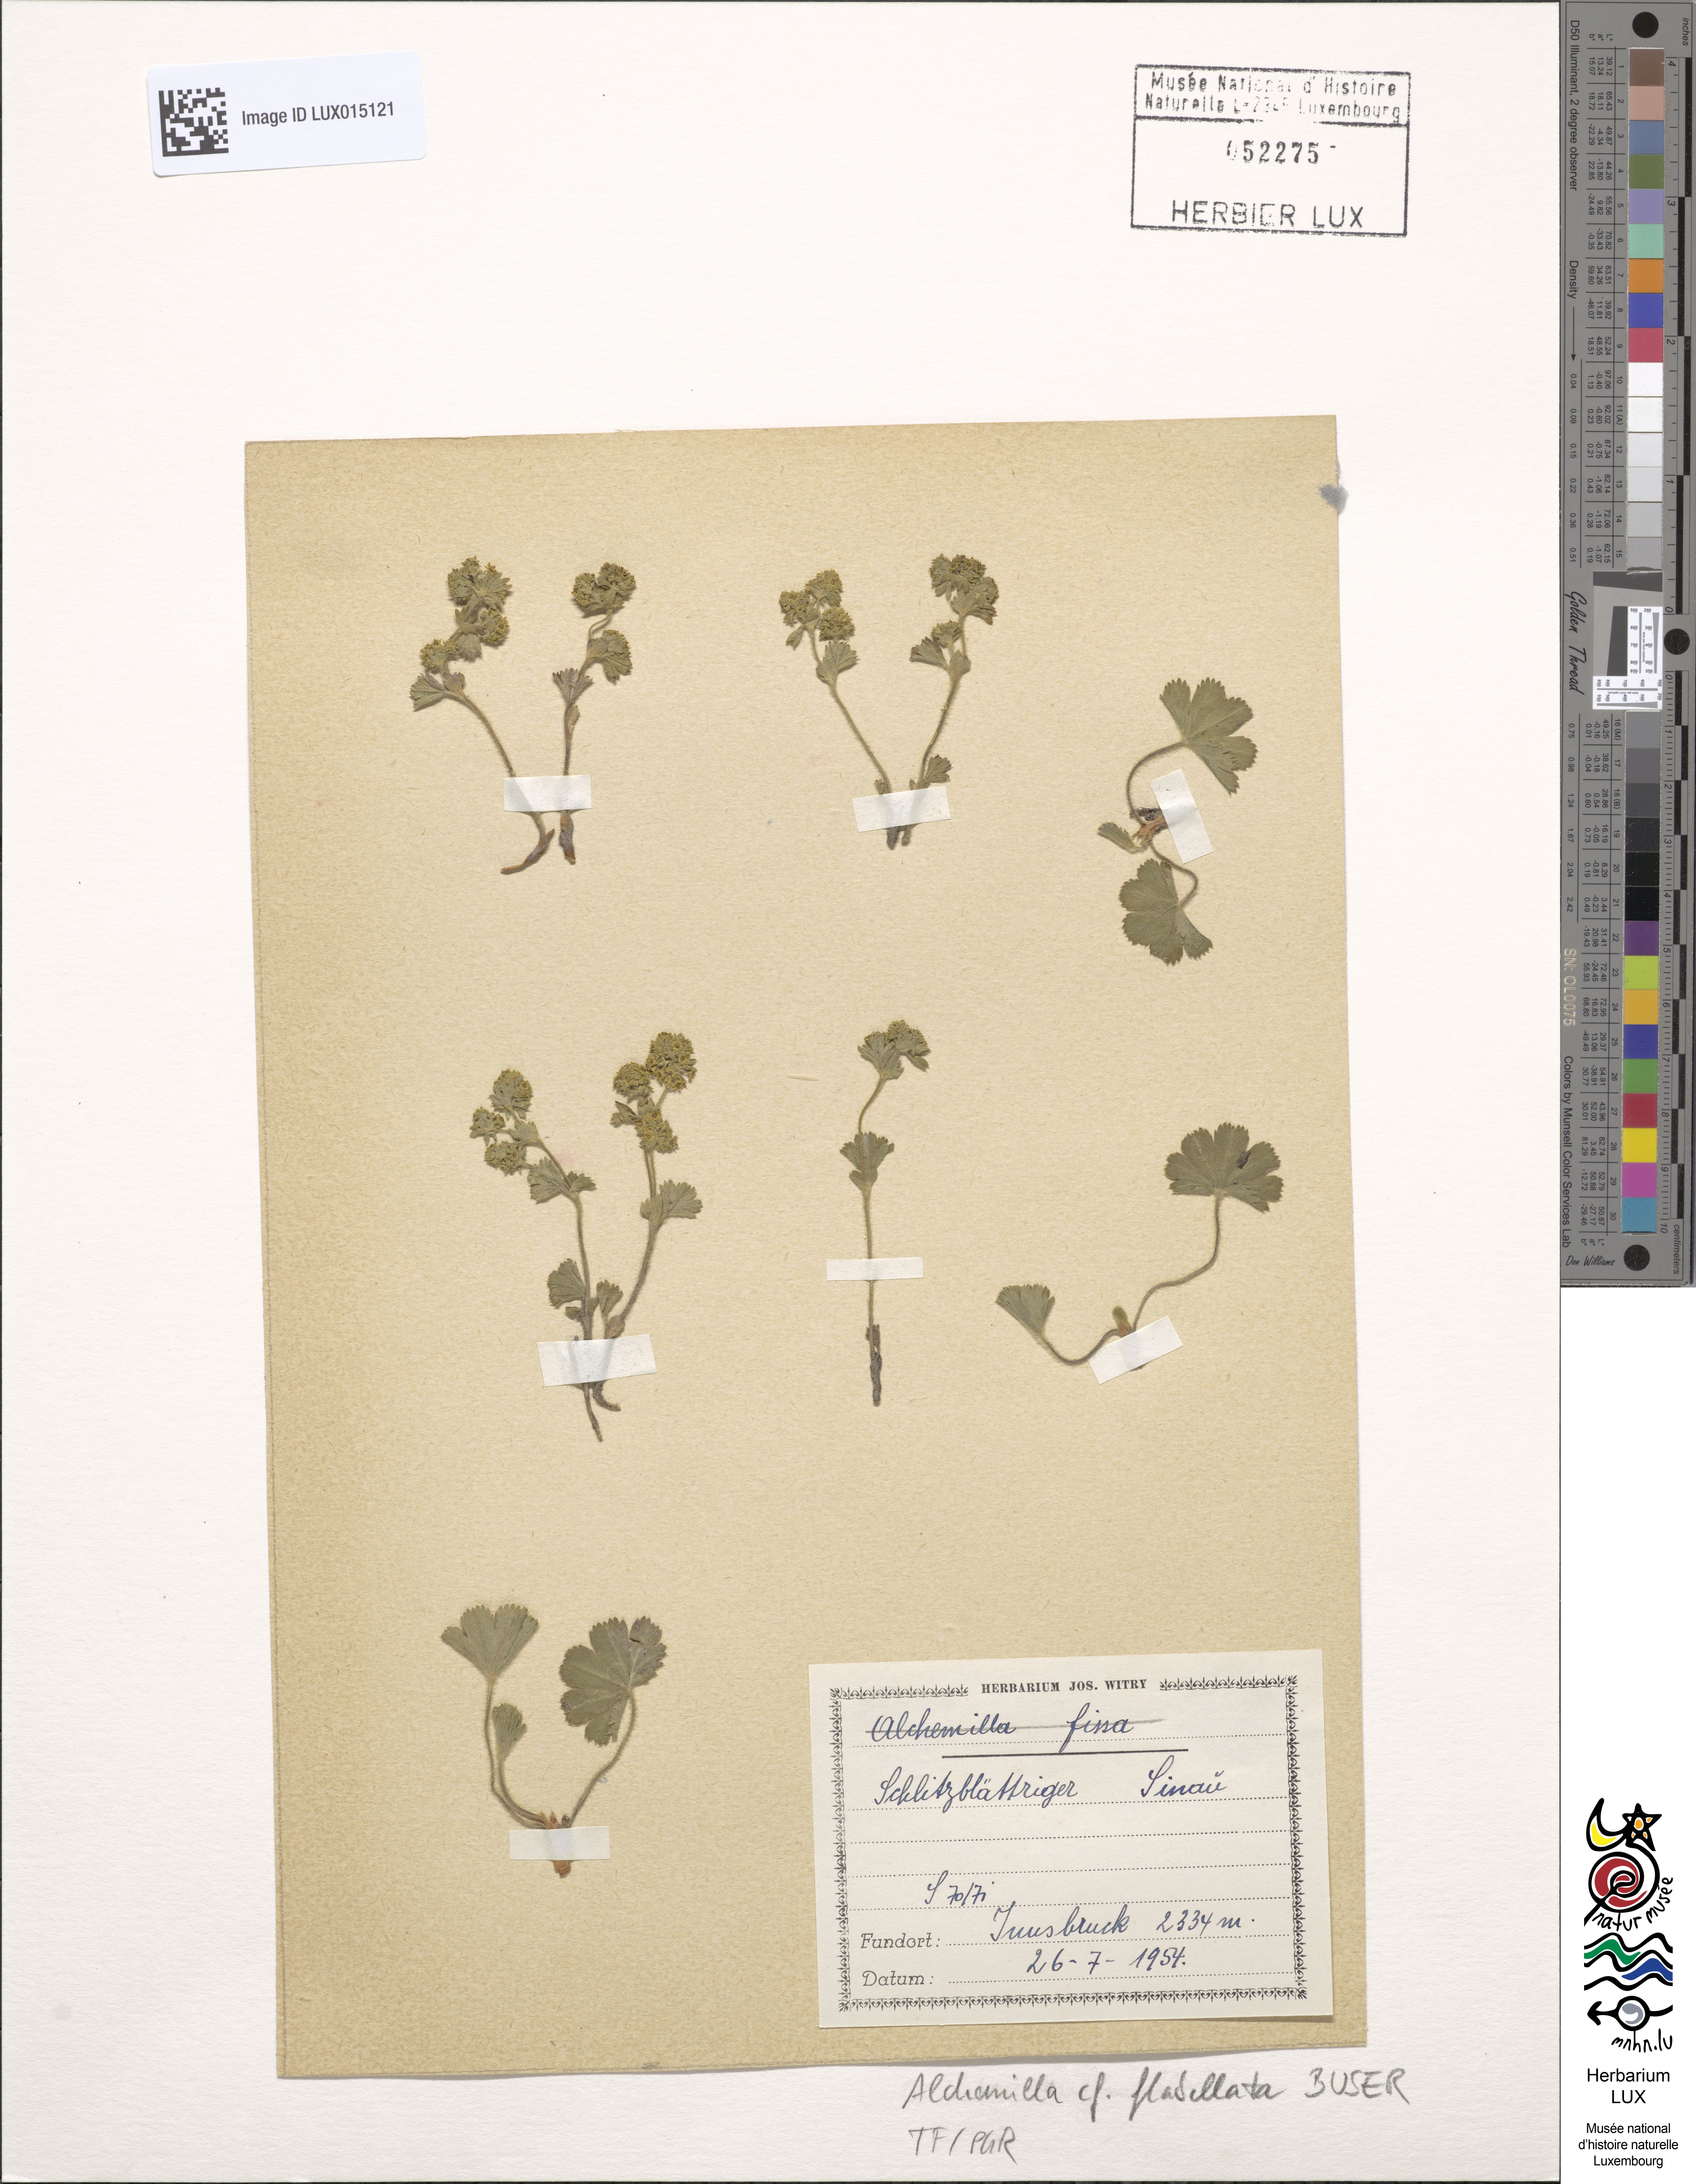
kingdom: Plantae
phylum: Tracheophyta
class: Magnoliopsida
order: Rosales
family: Rosaceae
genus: Alchemilla
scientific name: Alchemilla flabellata
